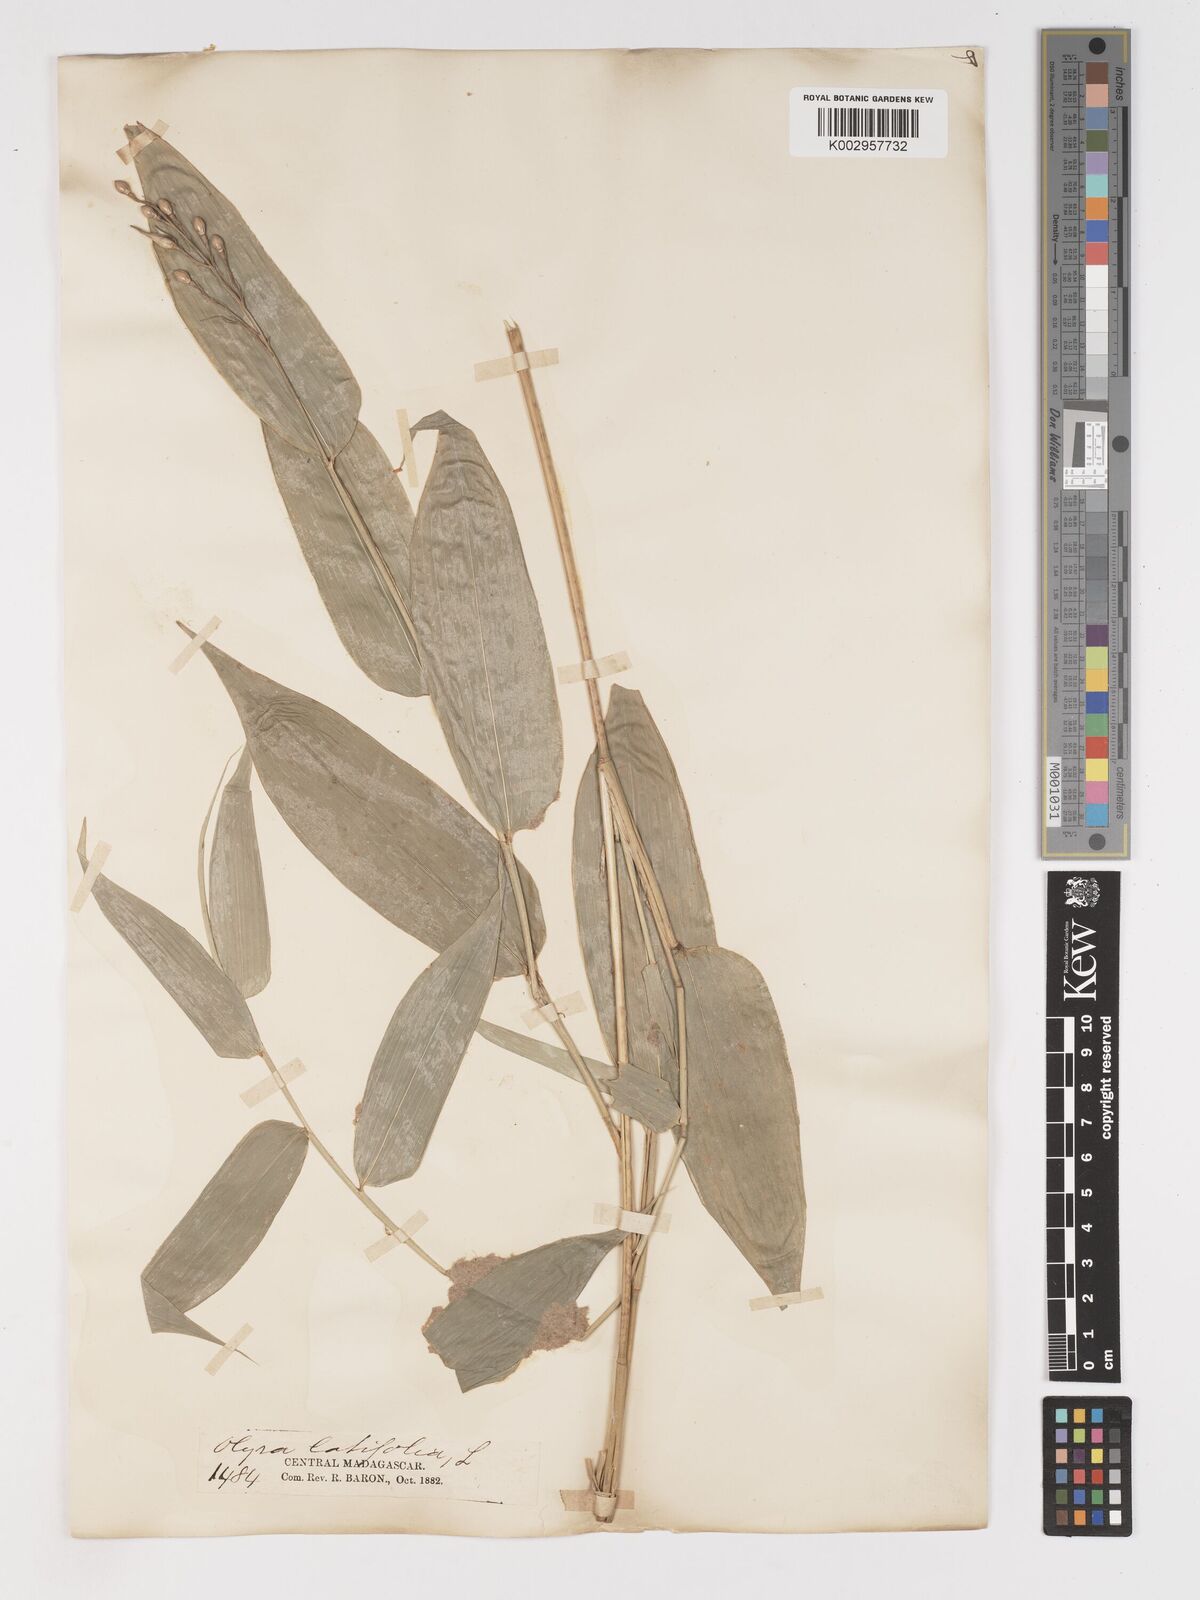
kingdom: Plantae
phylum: Tracheophyta
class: Liliopsida
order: Poales
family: Poaceae
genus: Olyra
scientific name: Olyra latifolia
